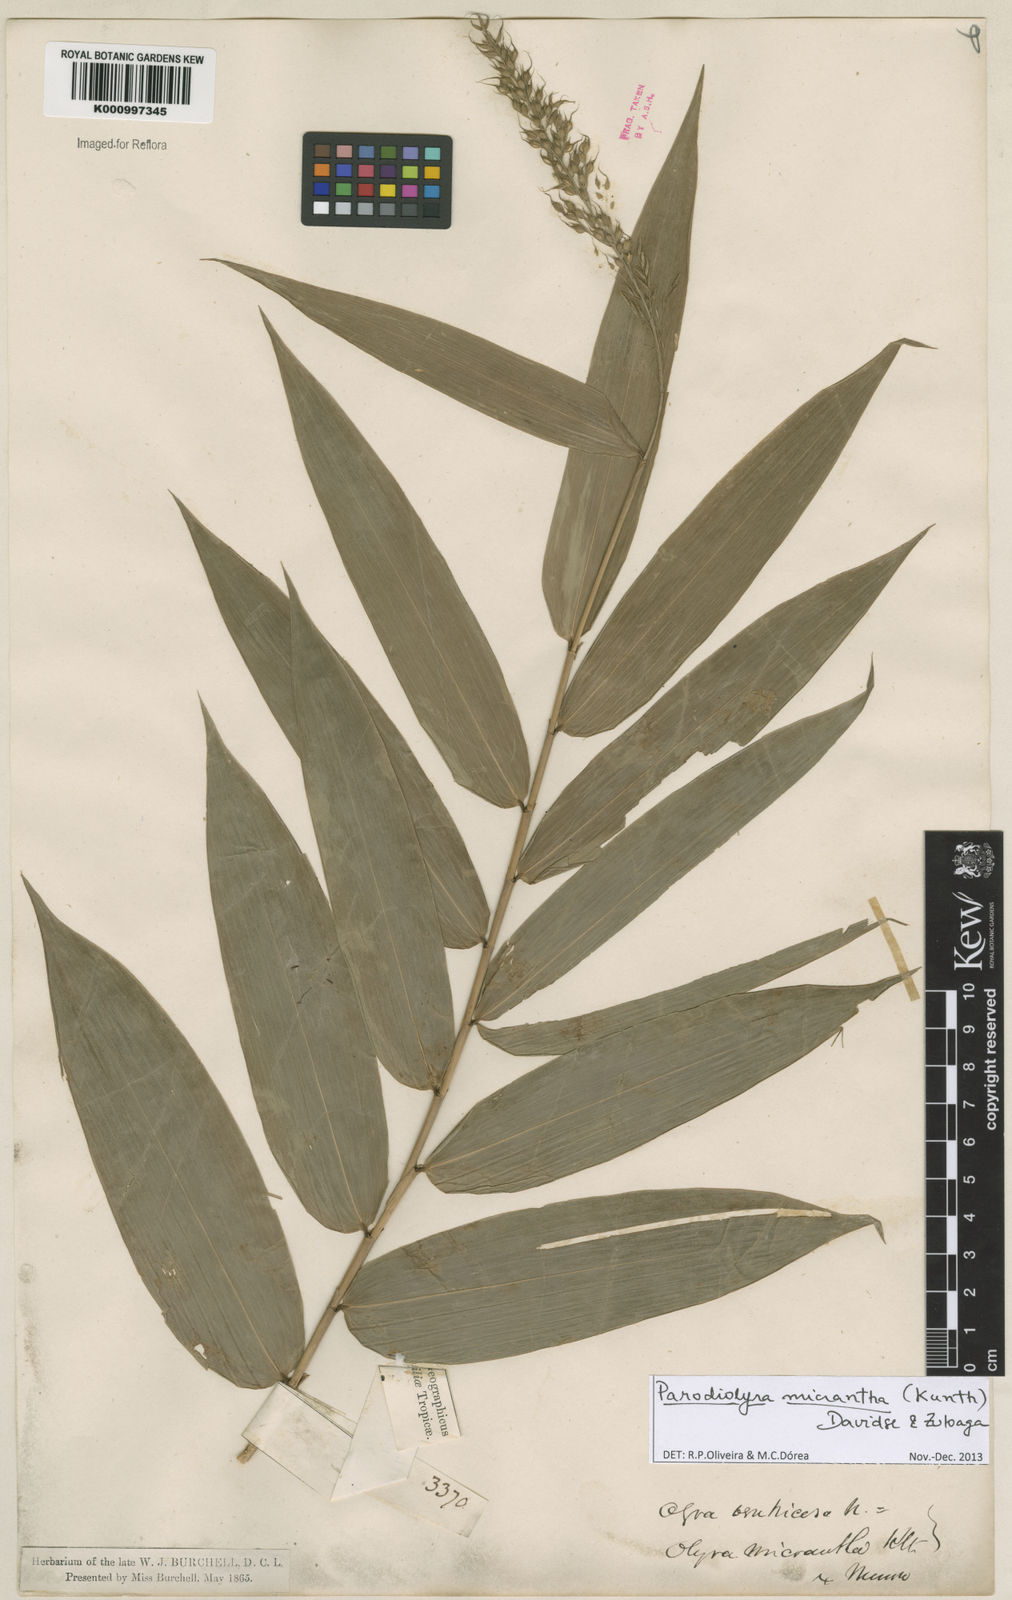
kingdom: Plantae
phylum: Tracheophyta
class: Liliopsida
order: Poales
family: Poaceae
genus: Taquara
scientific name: Taquara micrantha
